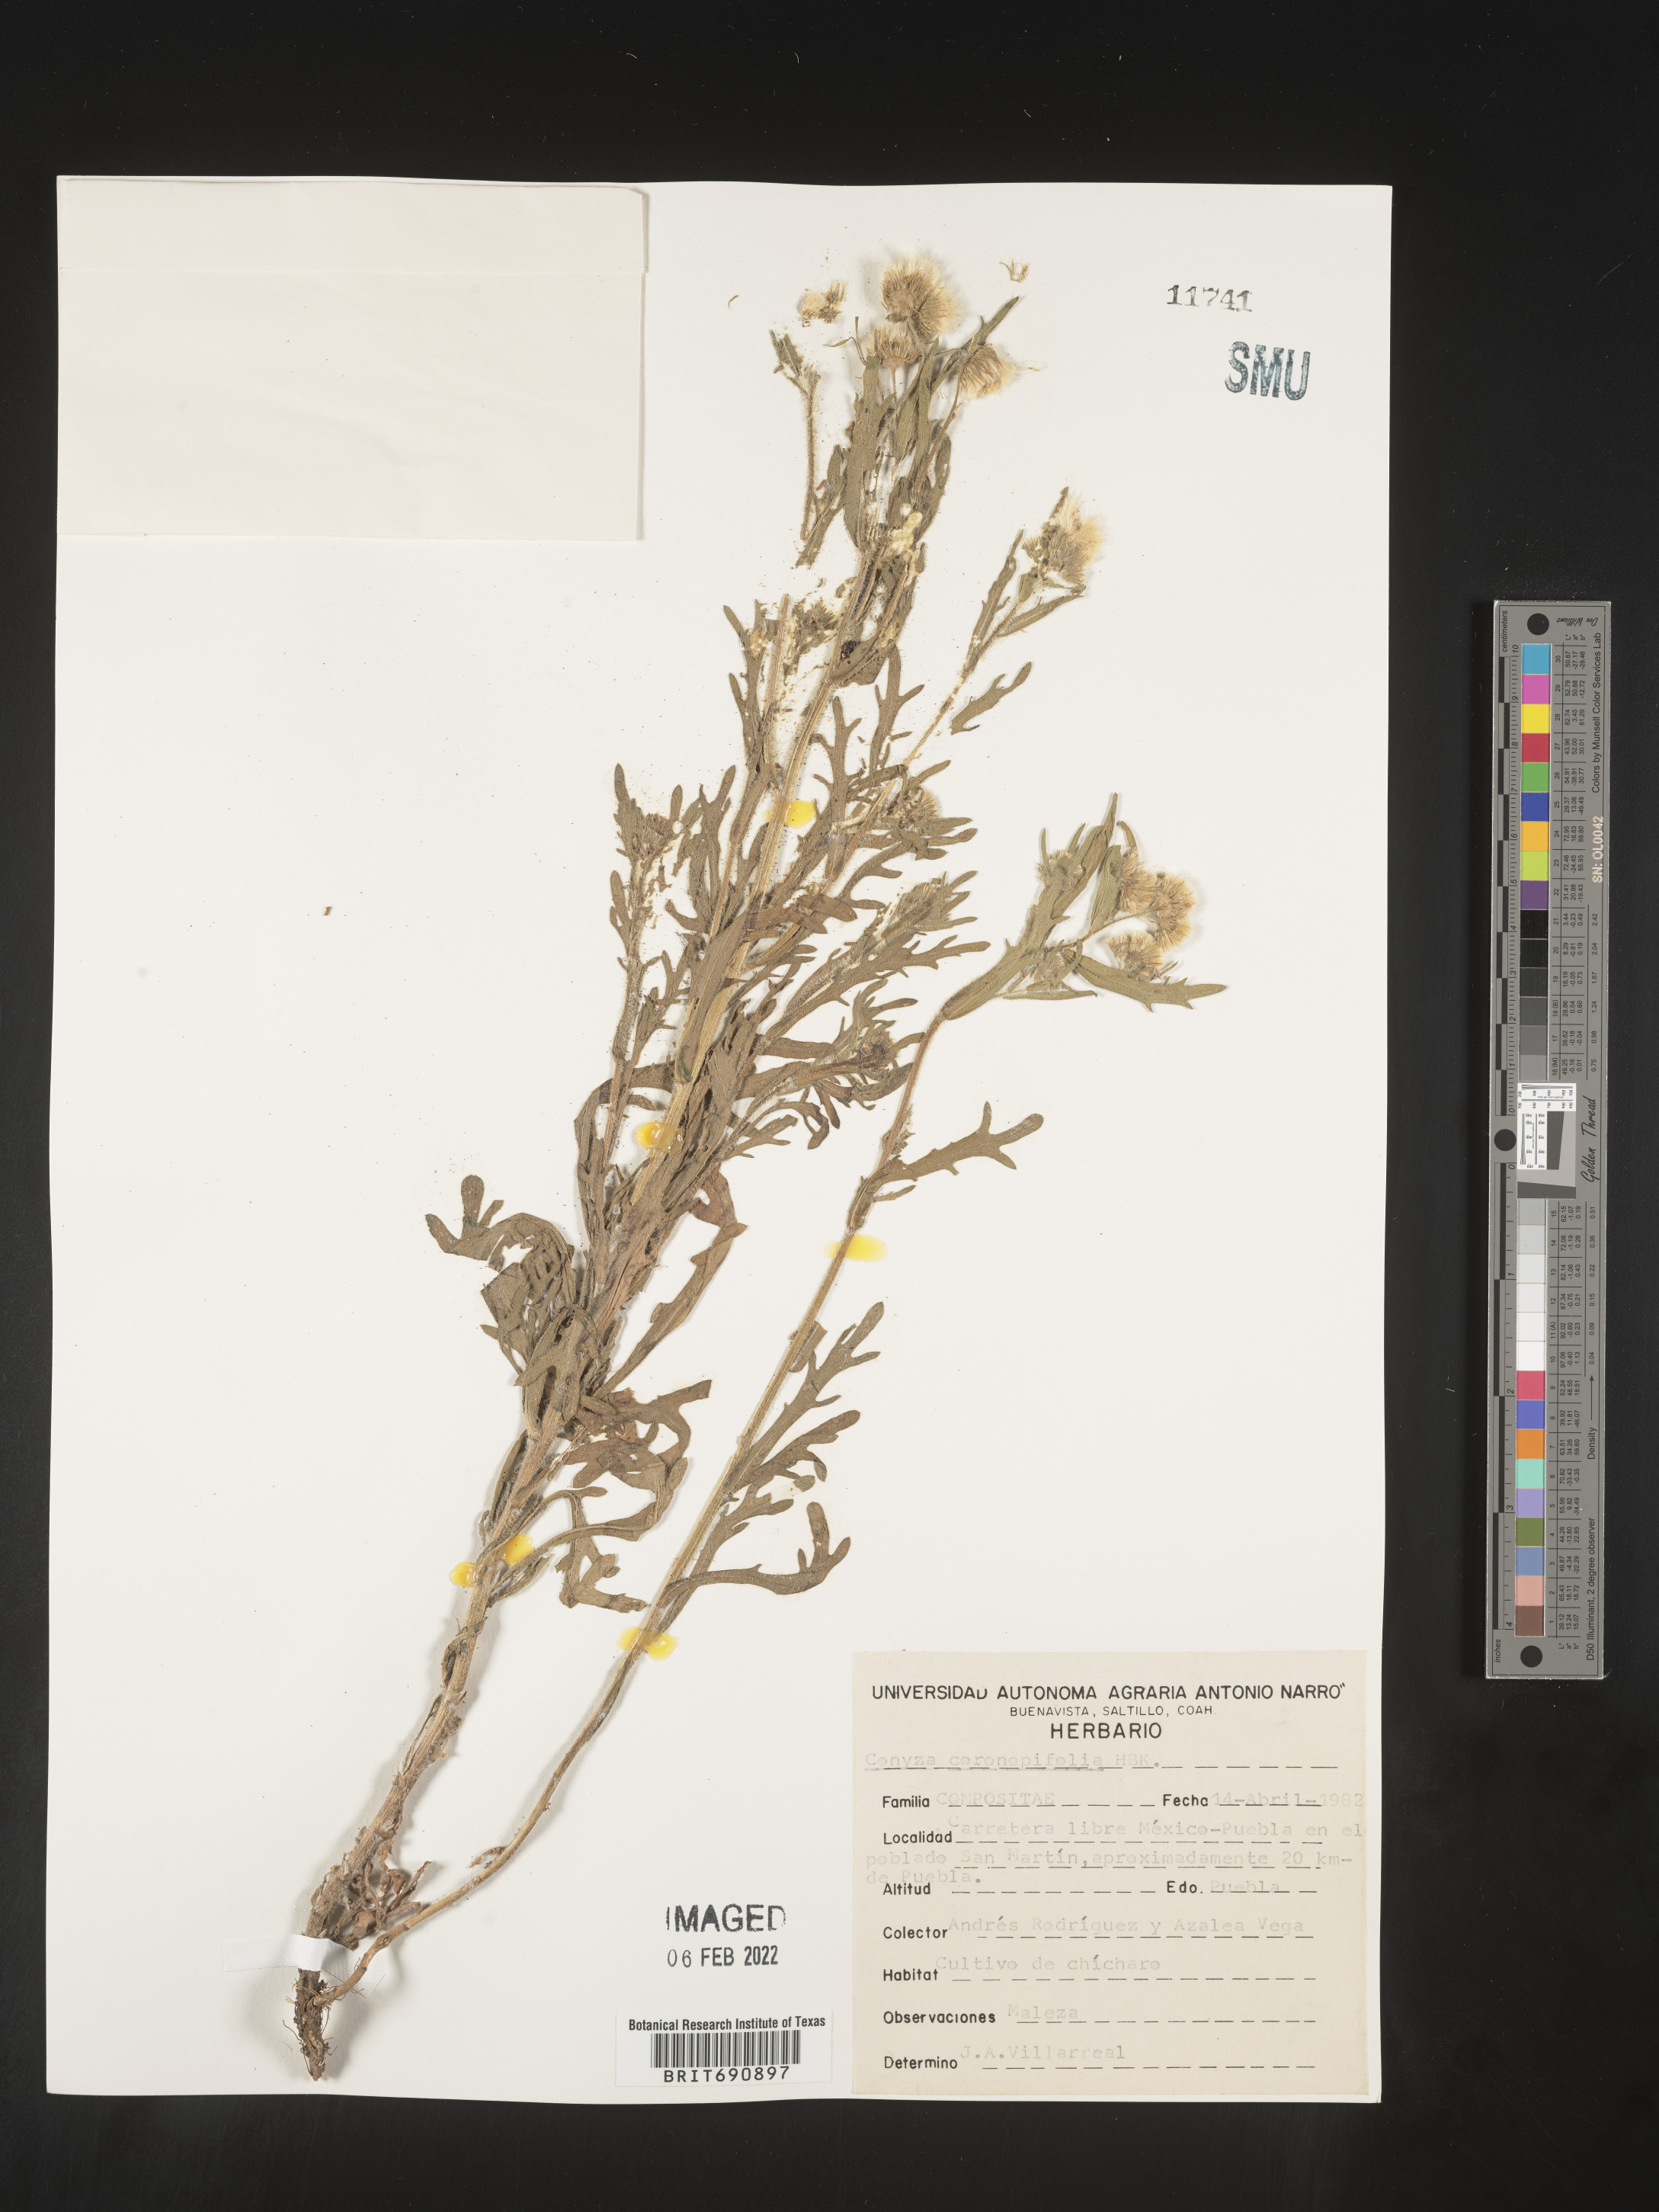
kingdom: Plantae
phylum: Tracheophyta
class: Magnoliopsida
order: Asterales
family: Asteraceae
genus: Erigeron
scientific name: Erigeron variifolius
